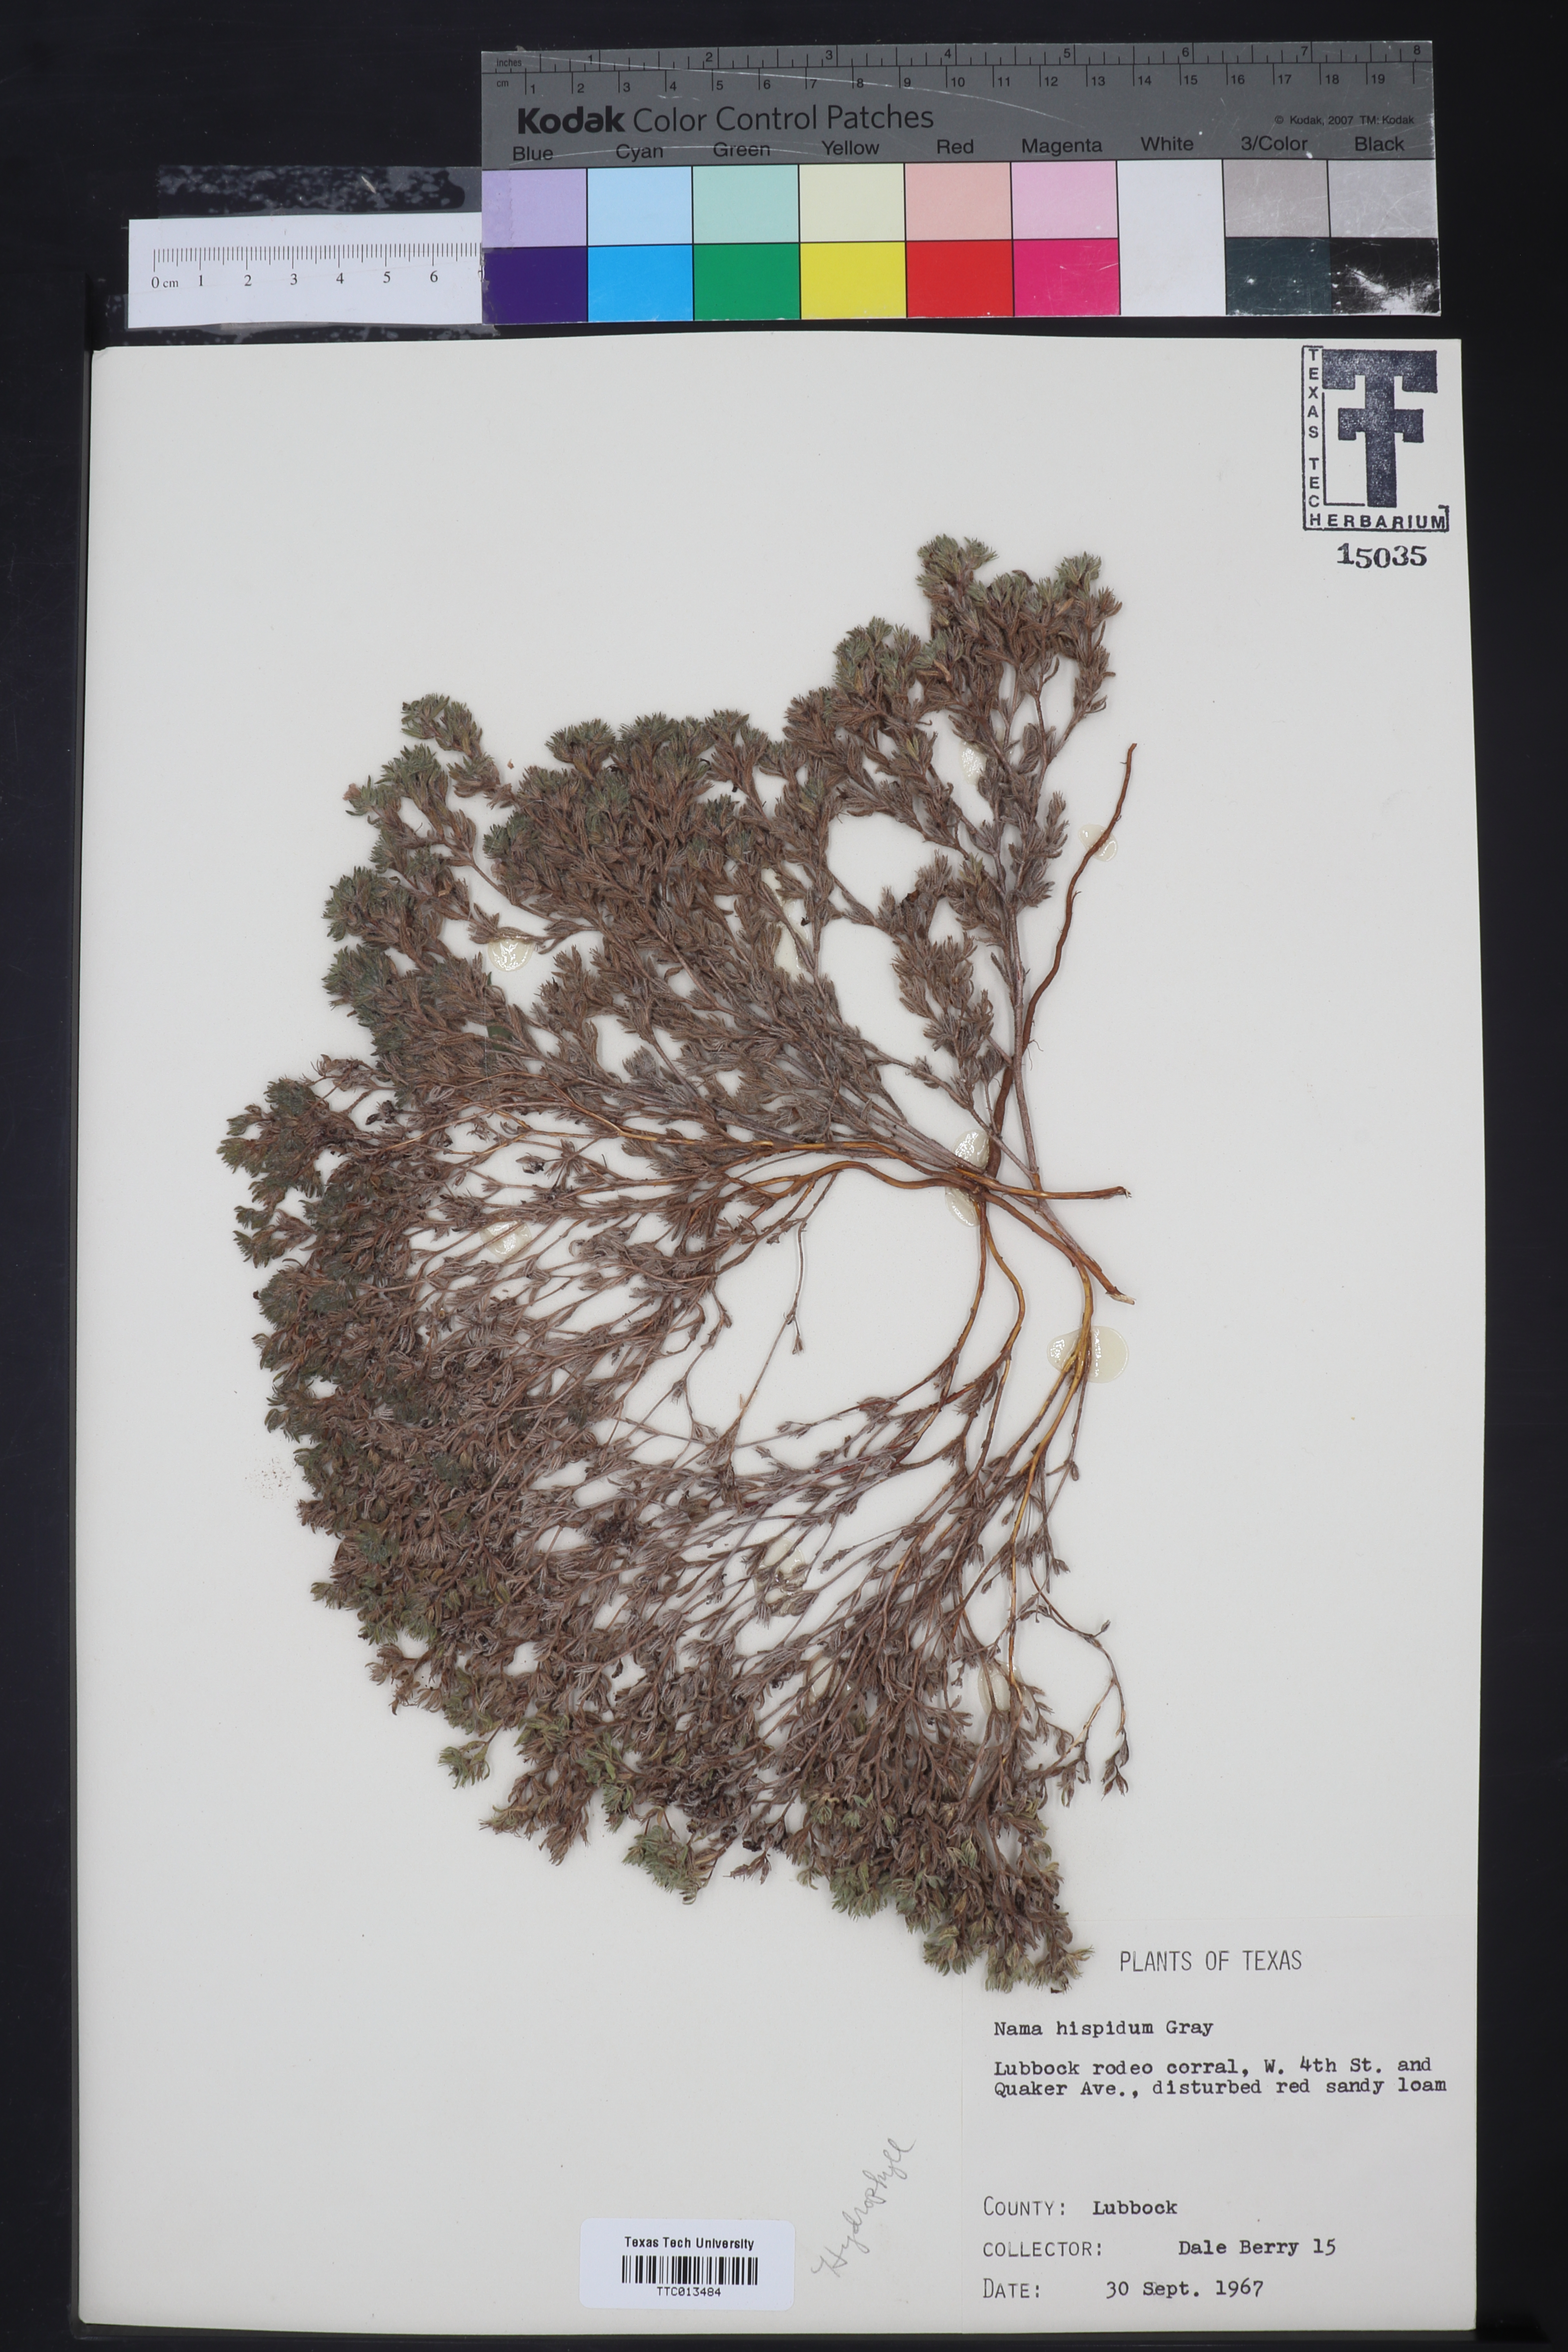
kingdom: Plantae
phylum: Tracheophyta
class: Magnoliopsida
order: Boraginales
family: Namaceae
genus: Nama
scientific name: Nama hispida
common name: Bristly nama
